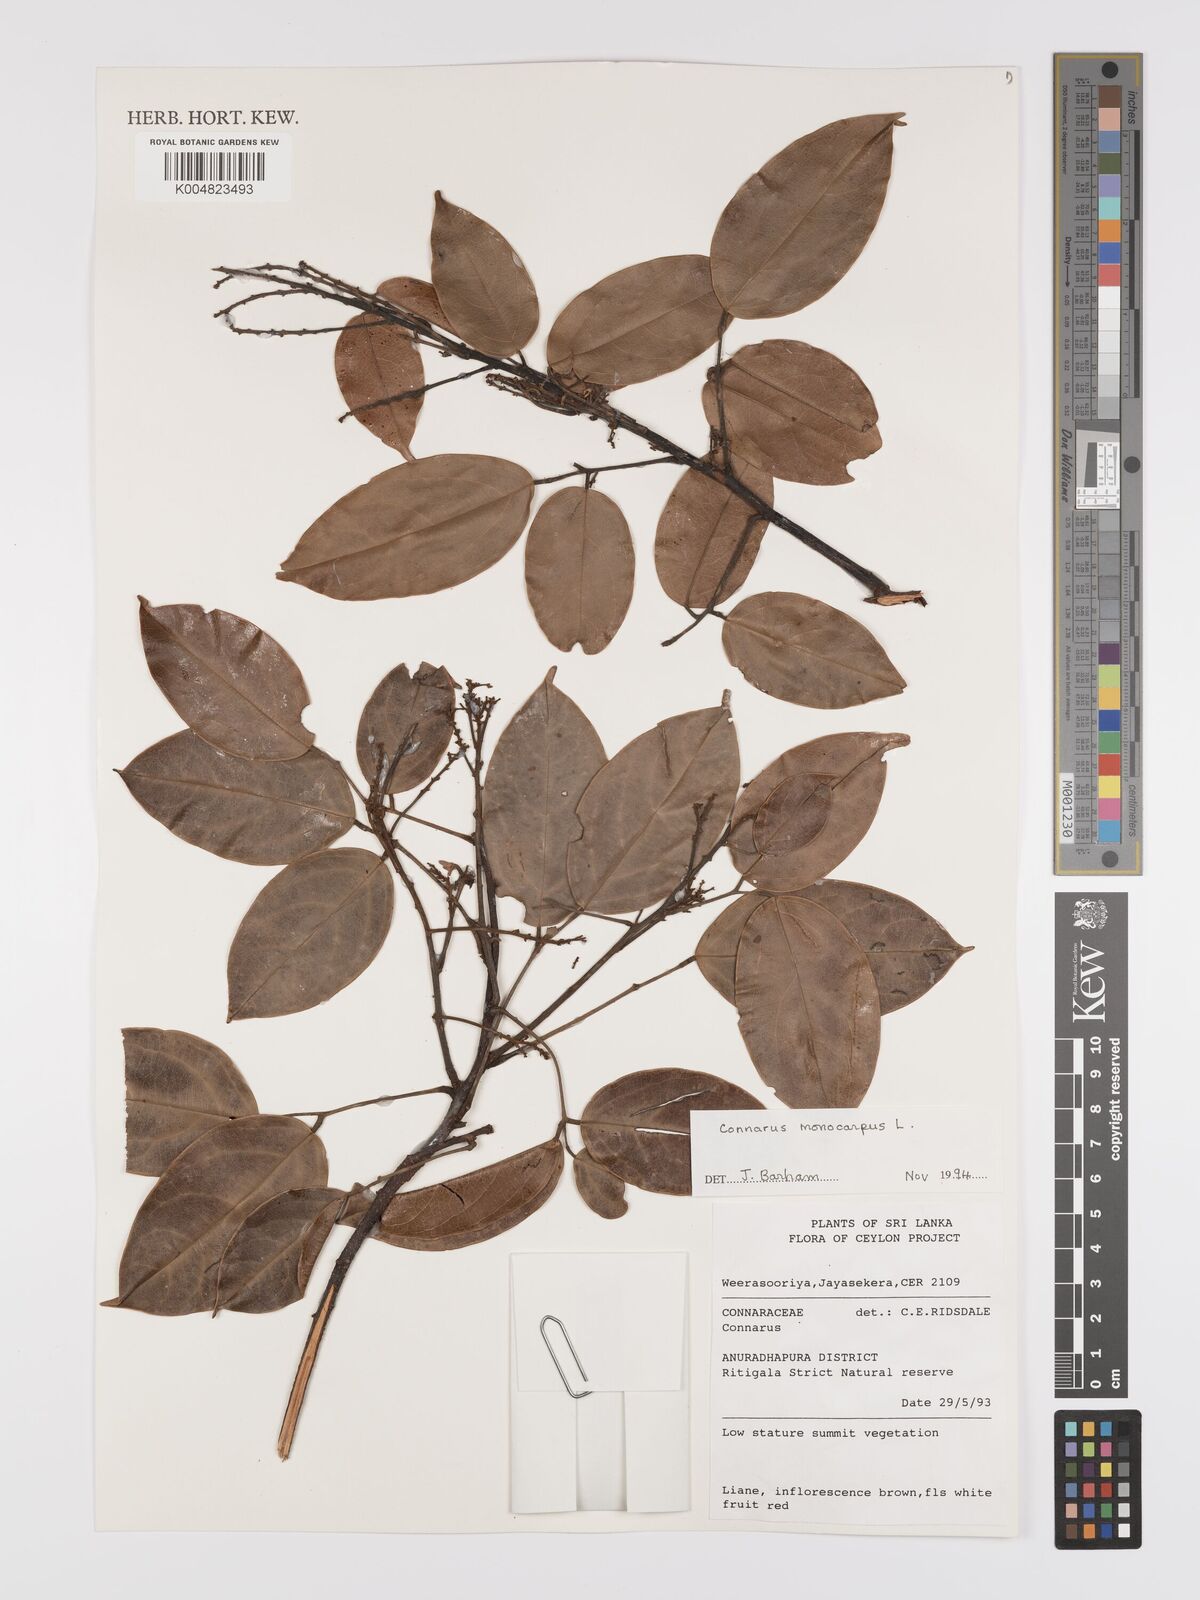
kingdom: Plantae
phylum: Tracheophyta
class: Magnoliopsida
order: Oxalidales
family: Connaraceae
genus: Connarus
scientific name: Connarus semidecandrus
